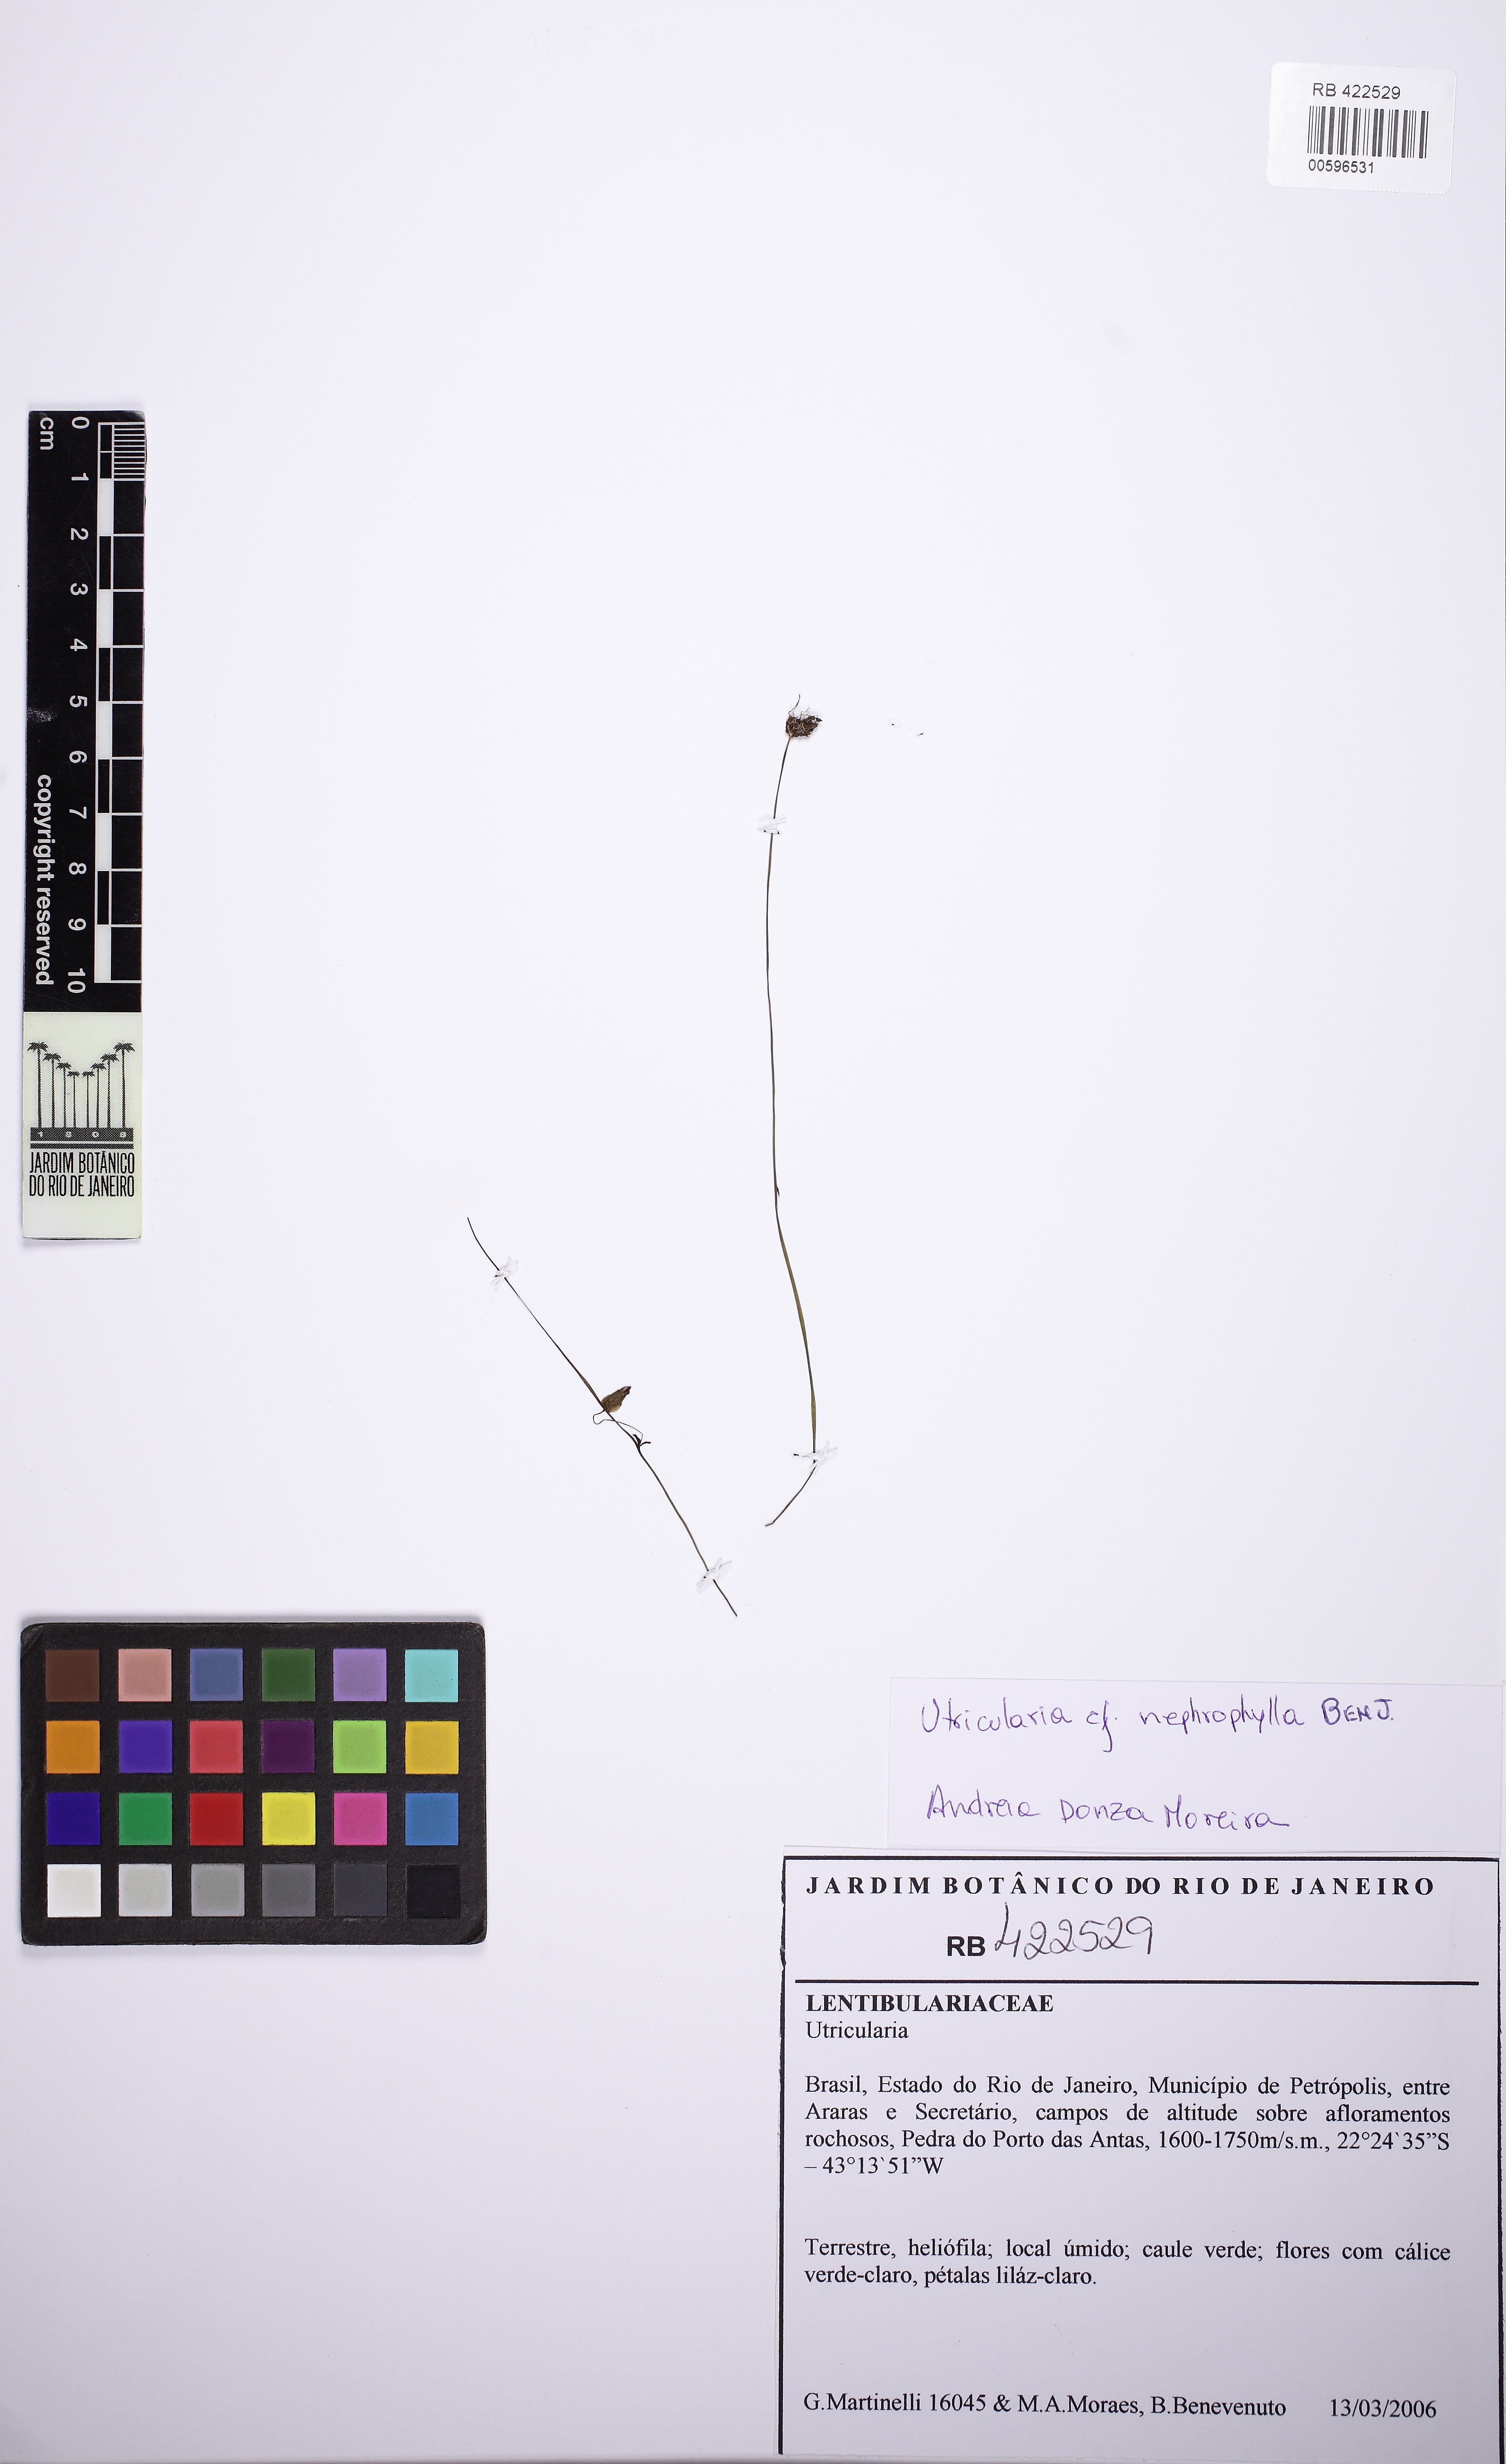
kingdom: Plantae
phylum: Tracheophyta
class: Magnoliopsida
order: Lamiales
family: Lentibulariaceae
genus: Utricularia
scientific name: Utricularia nephrophylla
